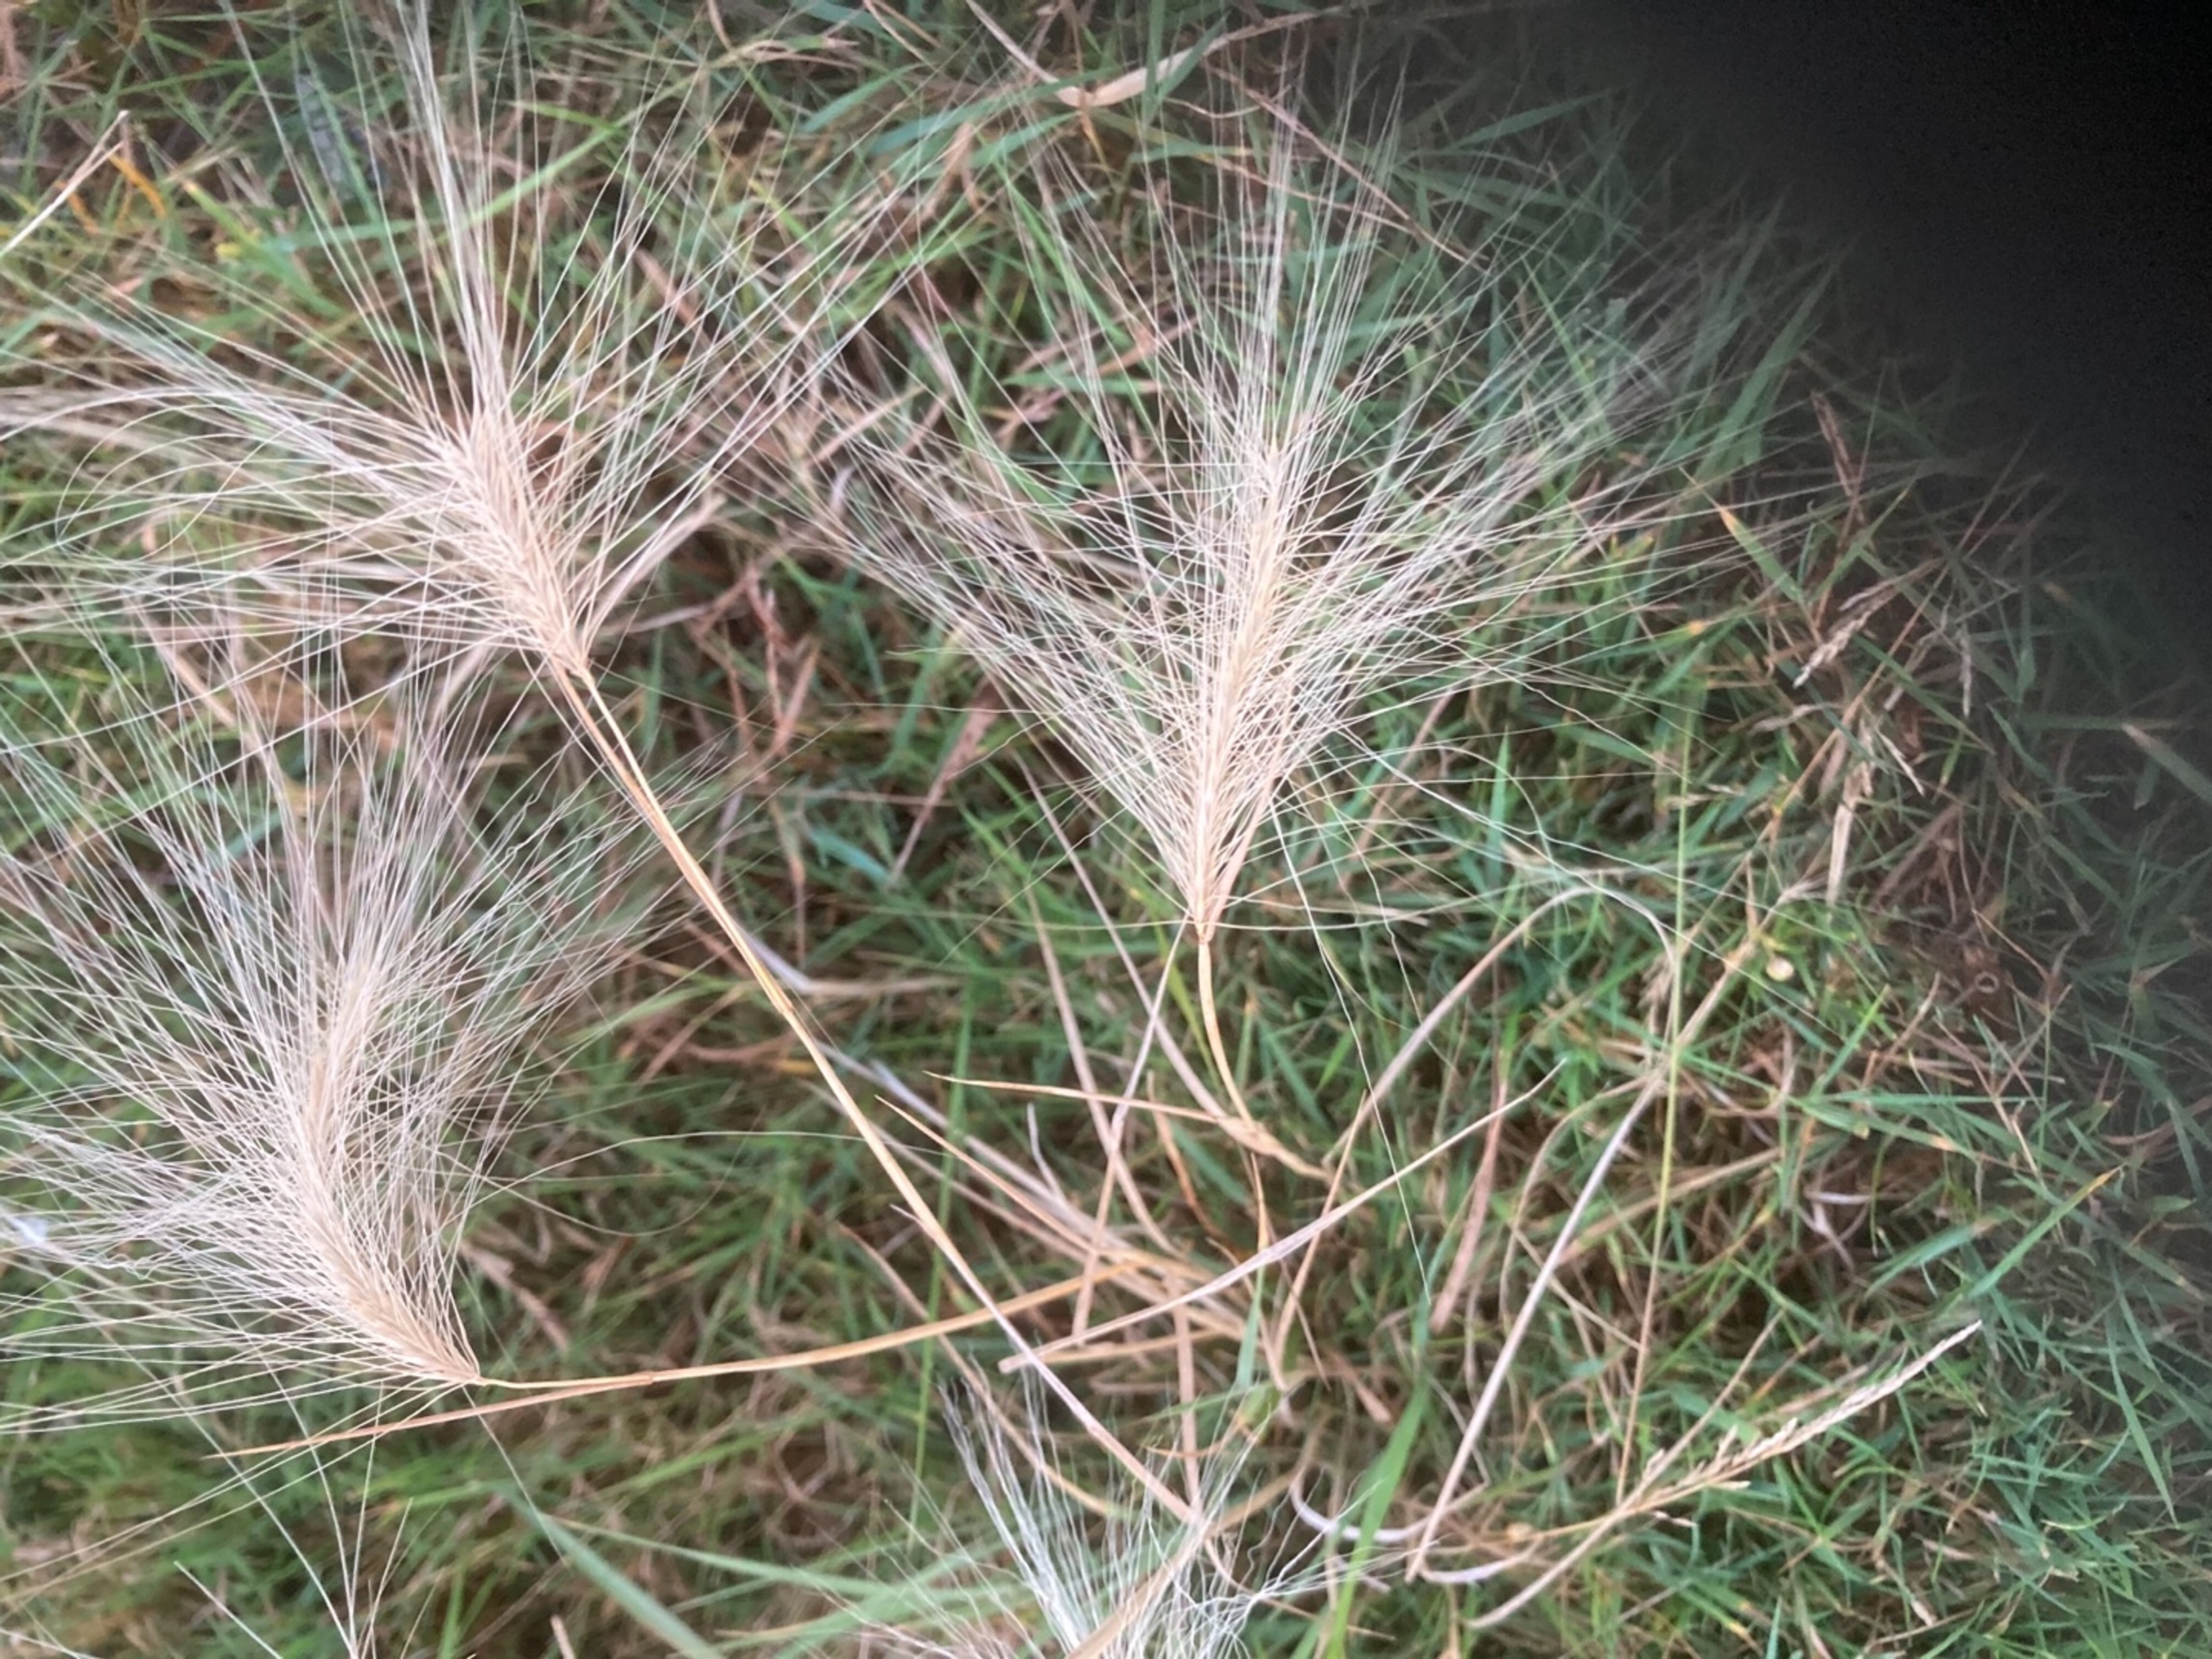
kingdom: Plantae
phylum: Tracheophyta
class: Liliopsida
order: Poales
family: Poaceae
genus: Hordeum
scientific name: Hordeum jubatum
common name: Egernhale-byg
